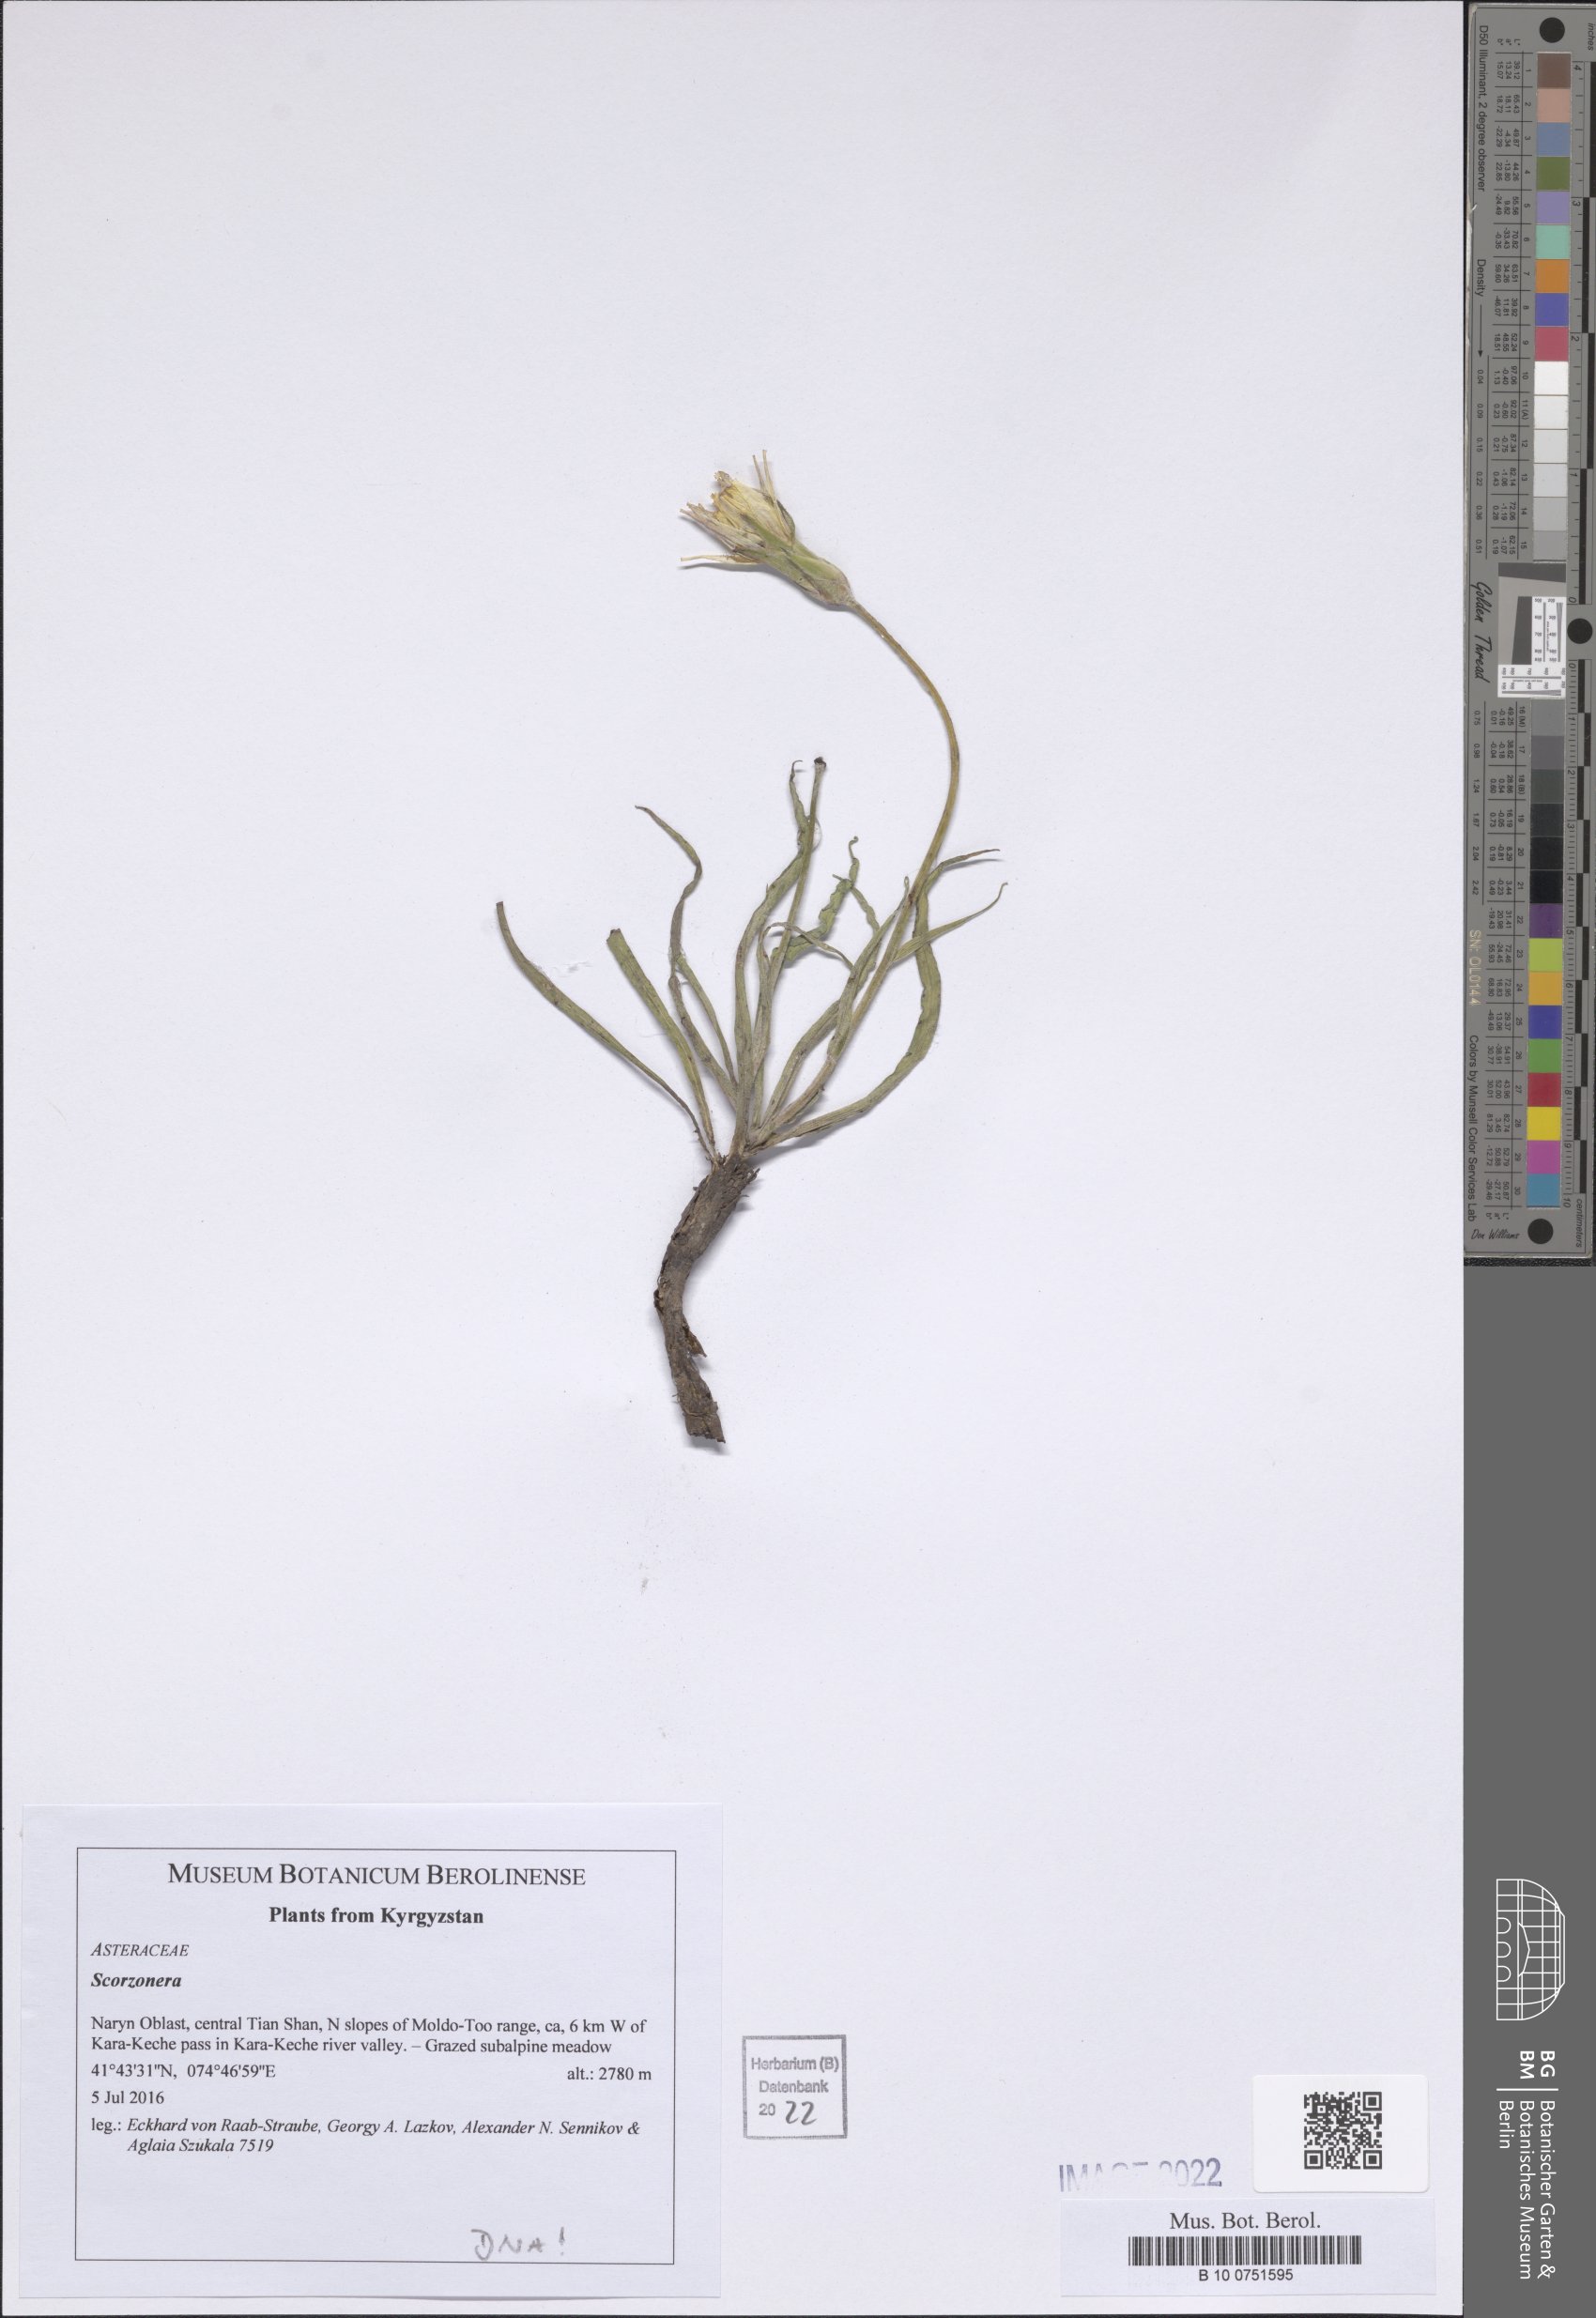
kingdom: Plantae
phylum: Tracheophyta
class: Magnoliopsida
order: Asterales
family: Asteraceae
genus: Scorzonera
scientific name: Scorzonera
